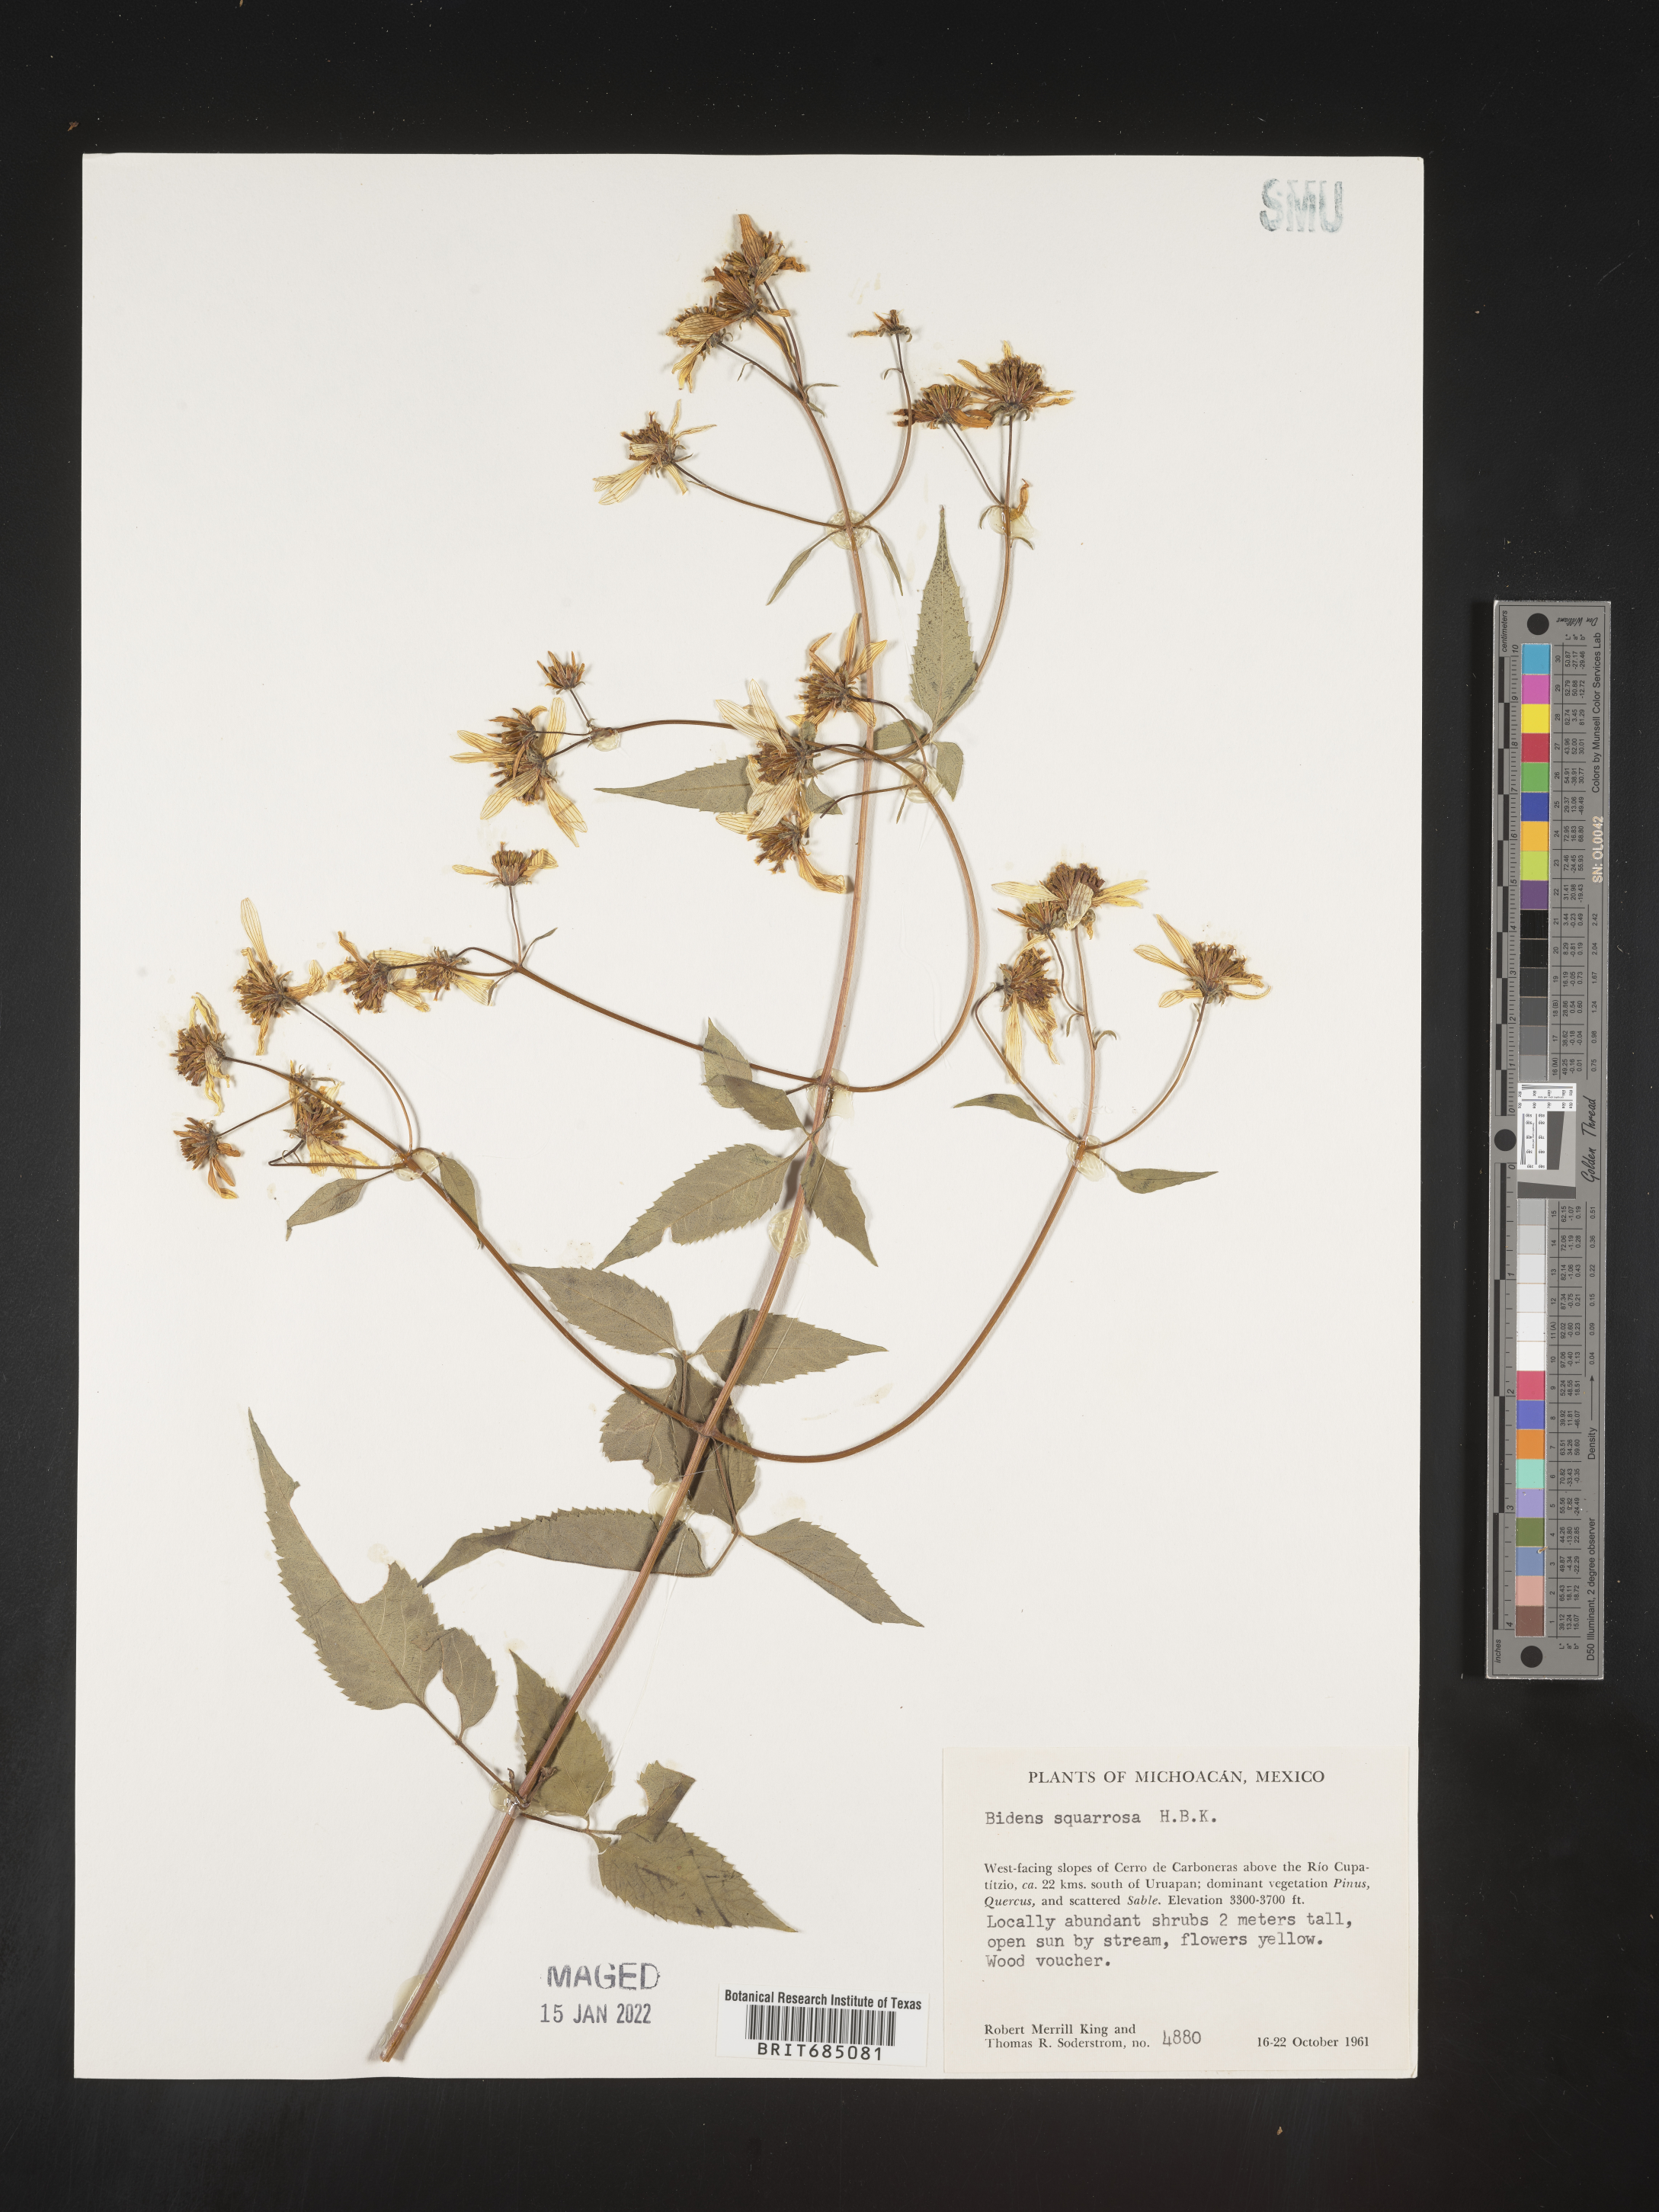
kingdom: Plantae
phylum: Tracheophyta
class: Magnoliopsida
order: Asterales
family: Asteraceae
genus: Bidens
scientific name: Bidens rubicundula
